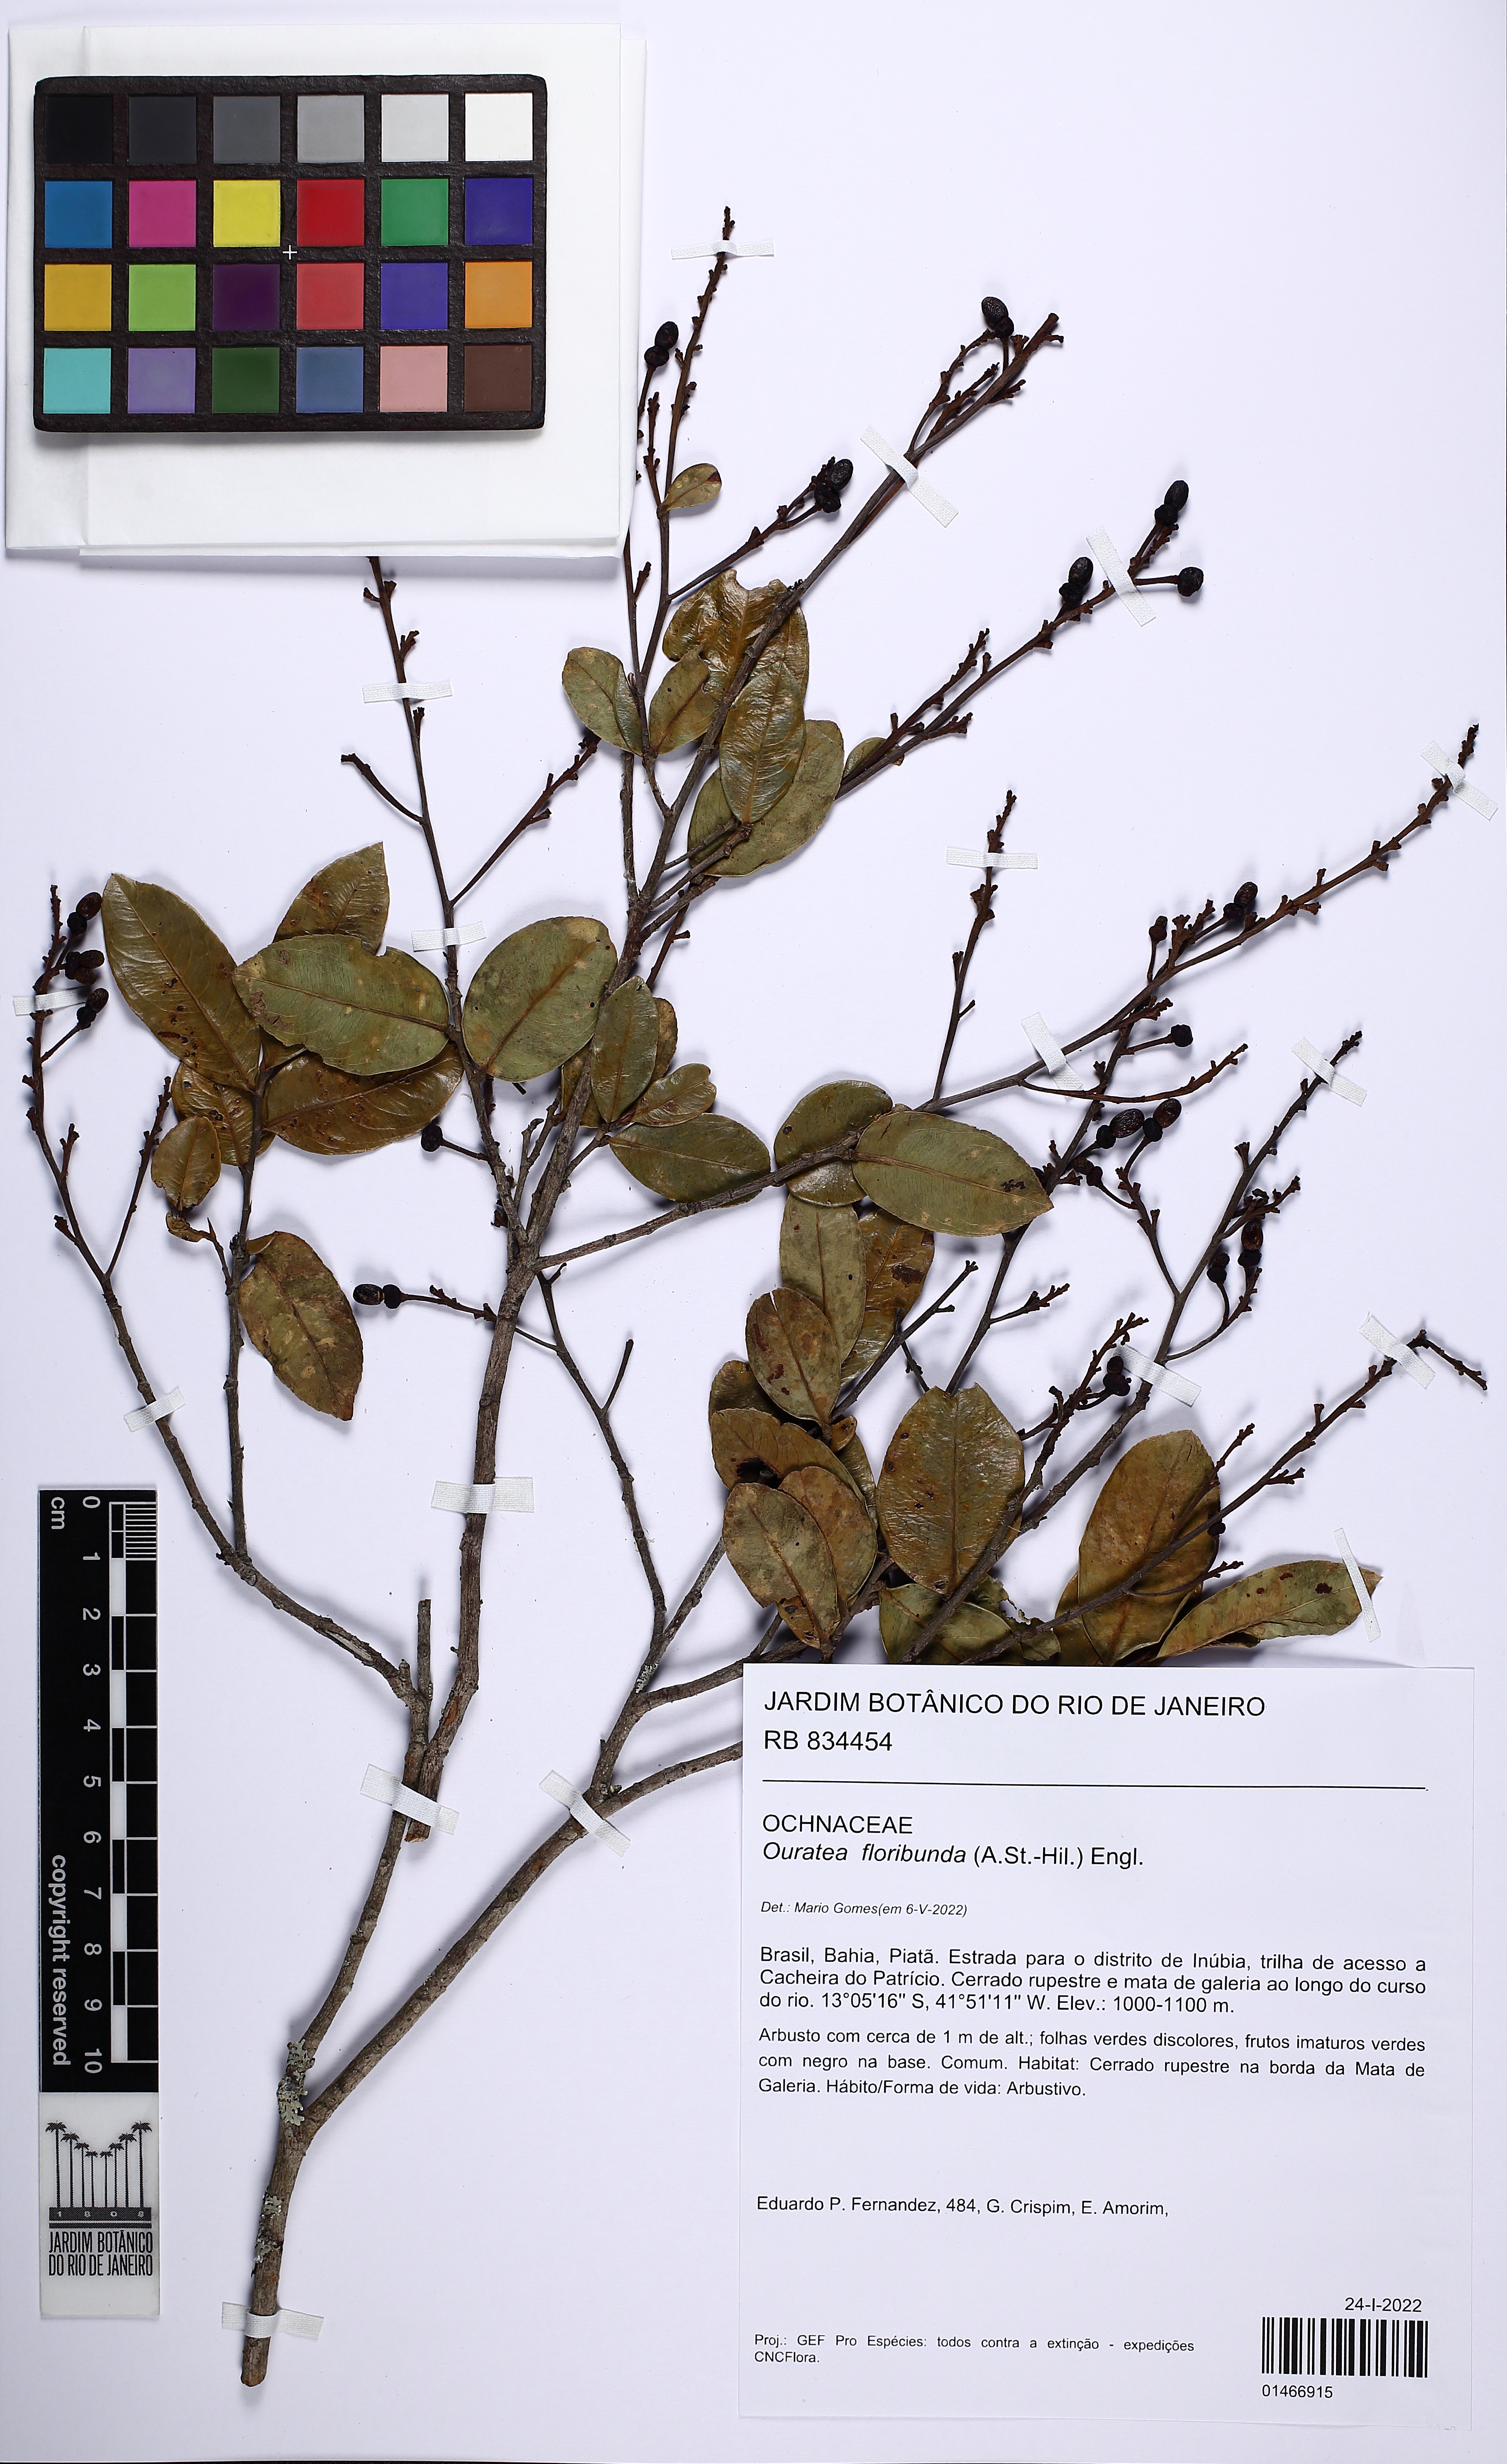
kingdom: Plantae
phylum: Tracheophyta
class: Magnoliopsida
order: Malpighiales
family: Ochnaceae
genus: Ouratea
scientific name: Ouratea floribunda
